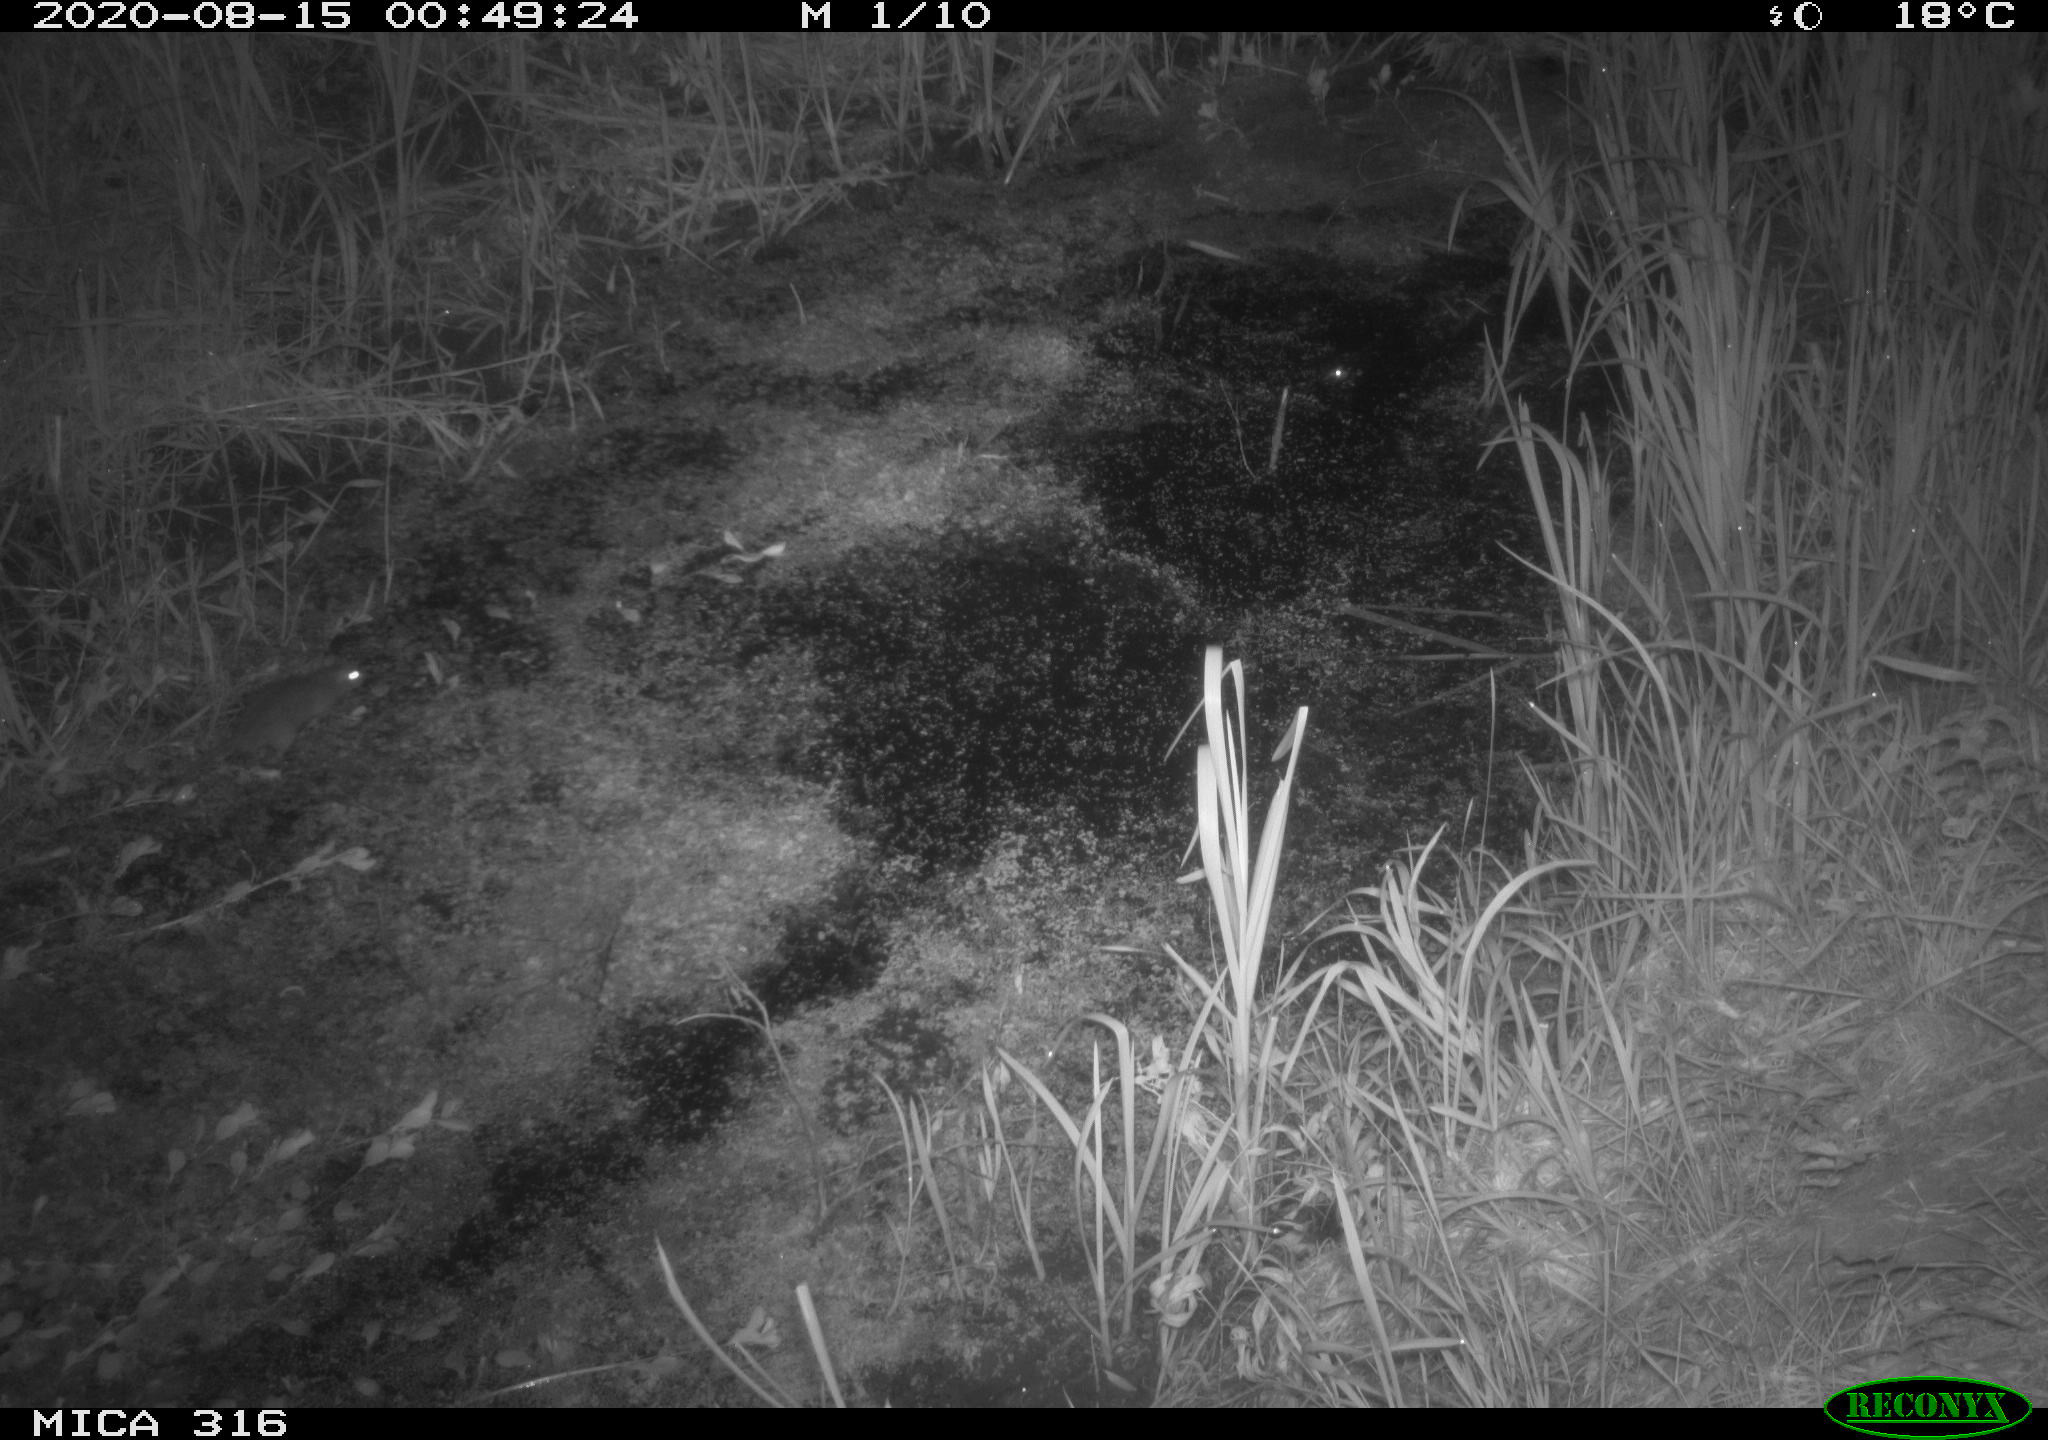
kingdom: Animalia
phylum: Chordata
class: Mammalia
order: Rodentia
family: Muridae
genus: Rattus
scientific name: Rattus norvegicus
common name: Brown rat
